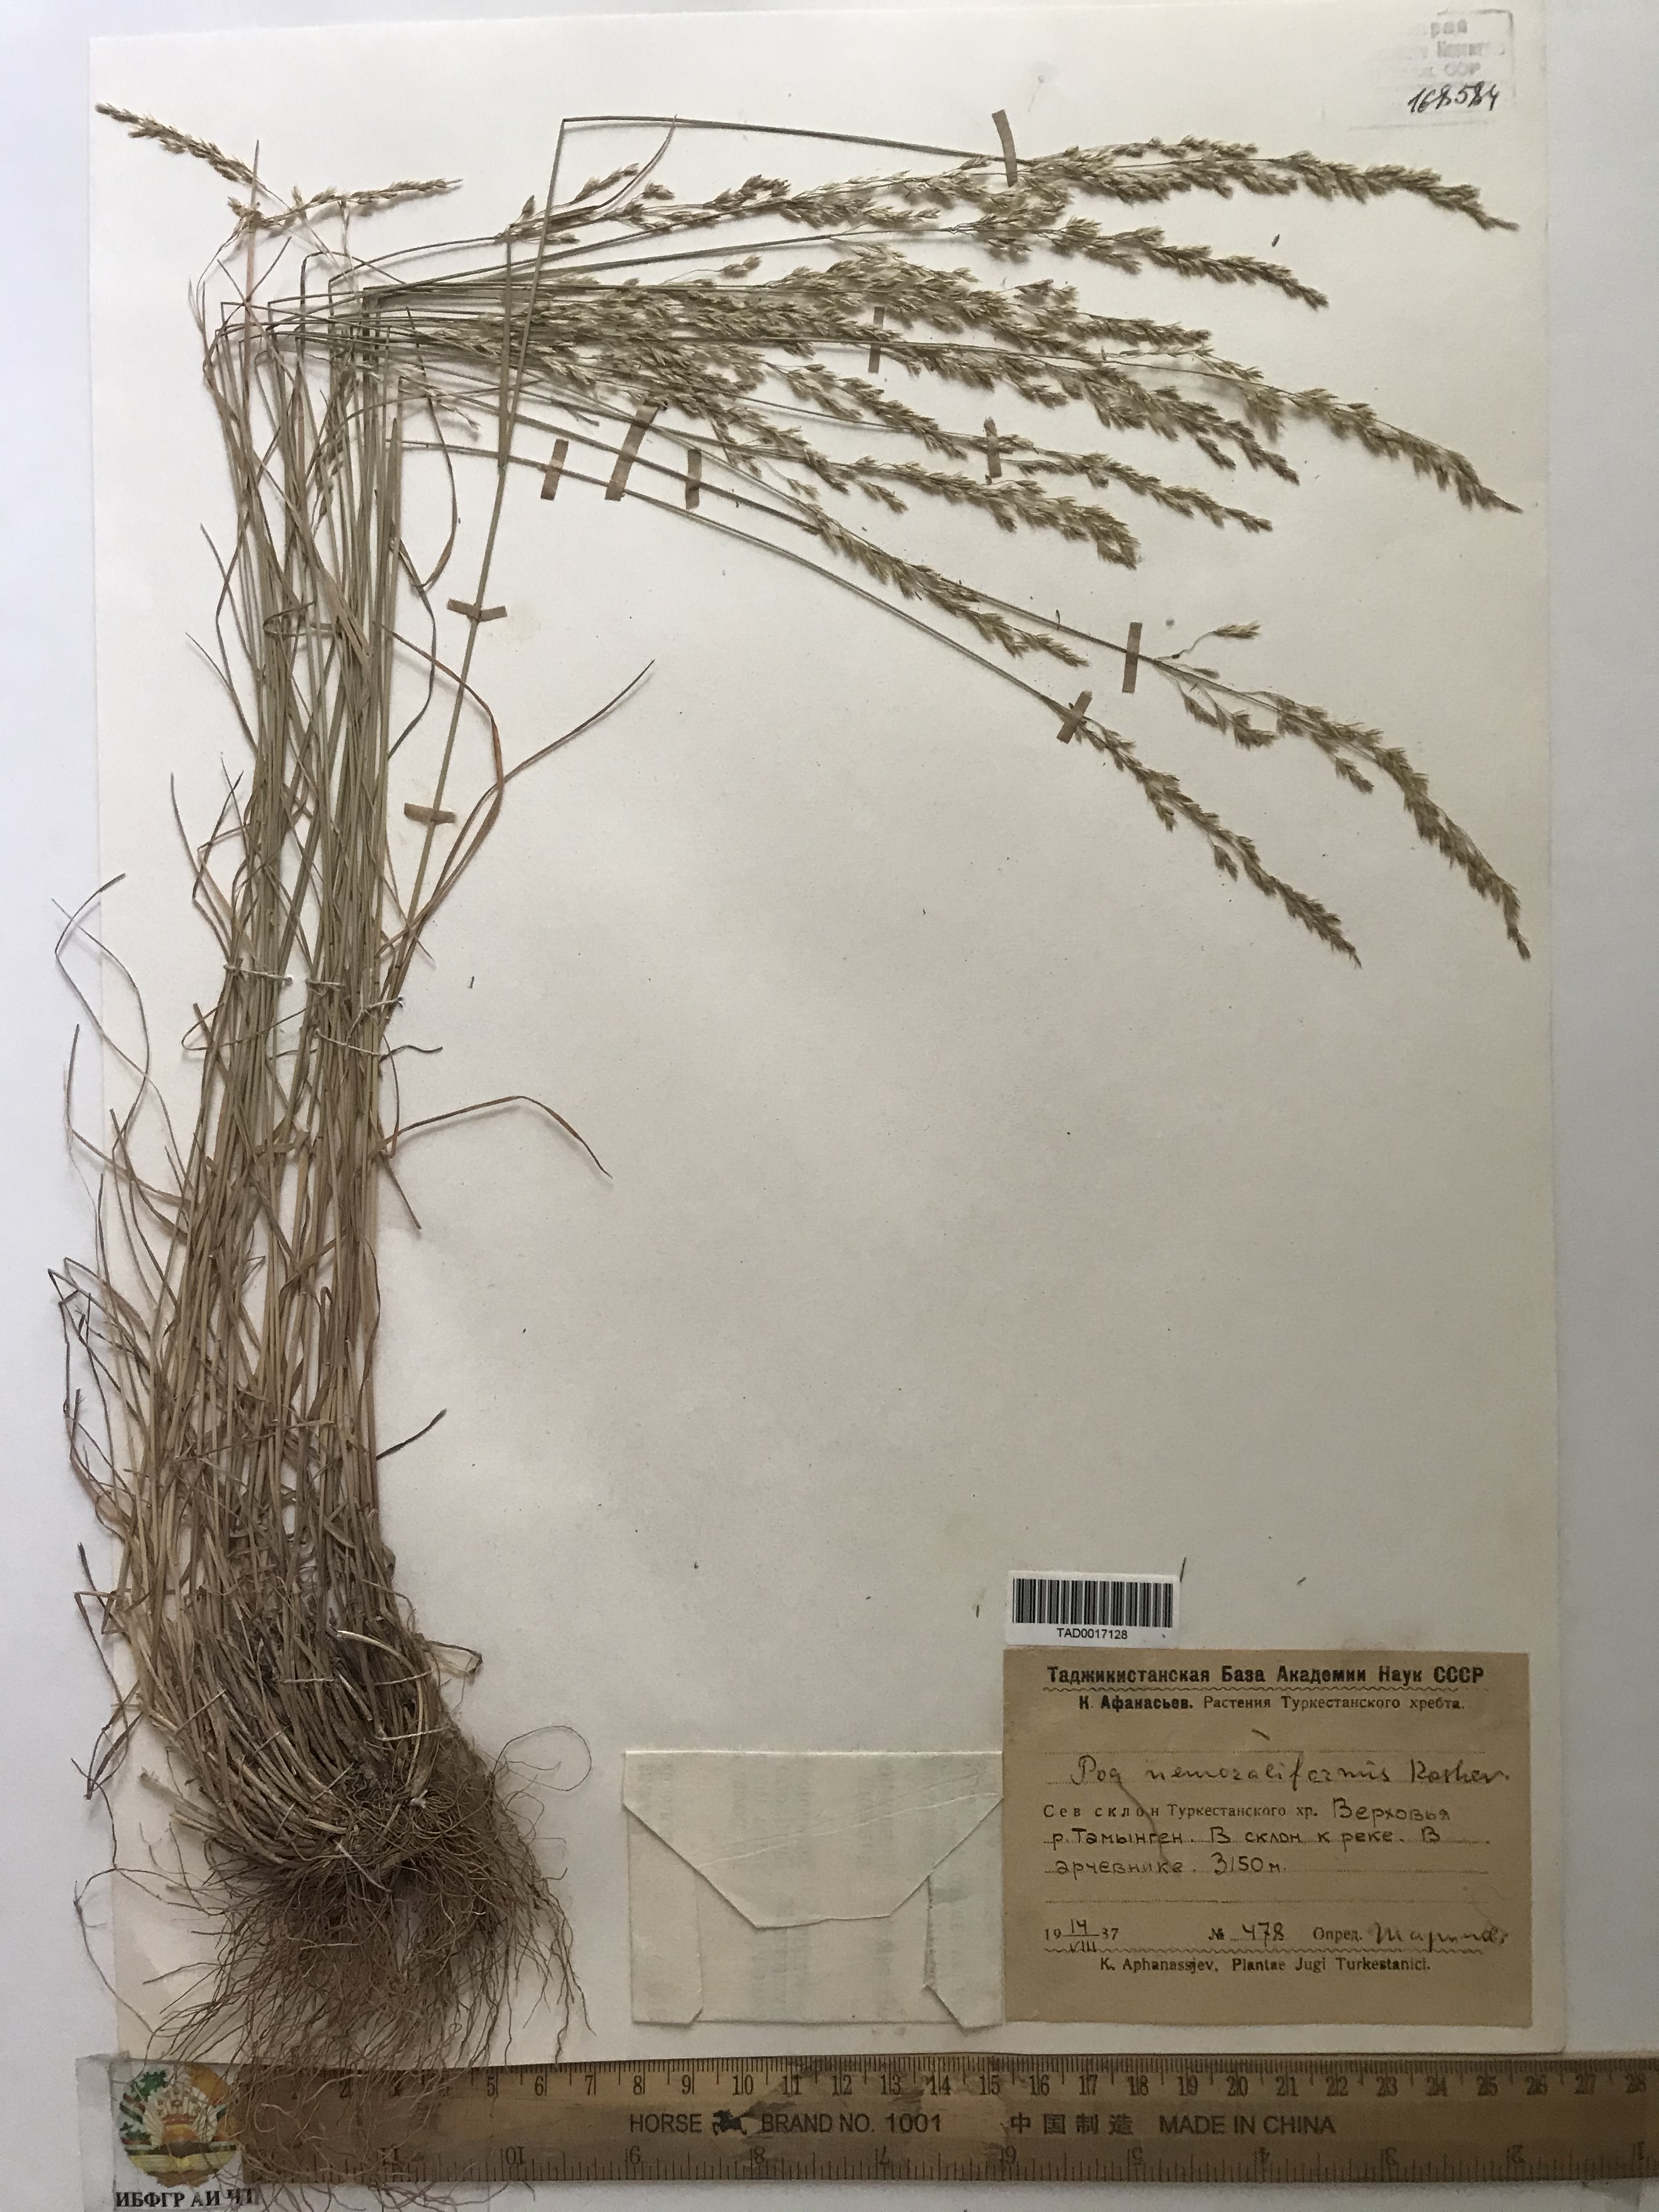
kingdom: Plantae
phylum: Tracheophyta
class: Liliopsida
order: Poales
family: Poaceae
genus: Poa
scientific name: Poa urssulensis
